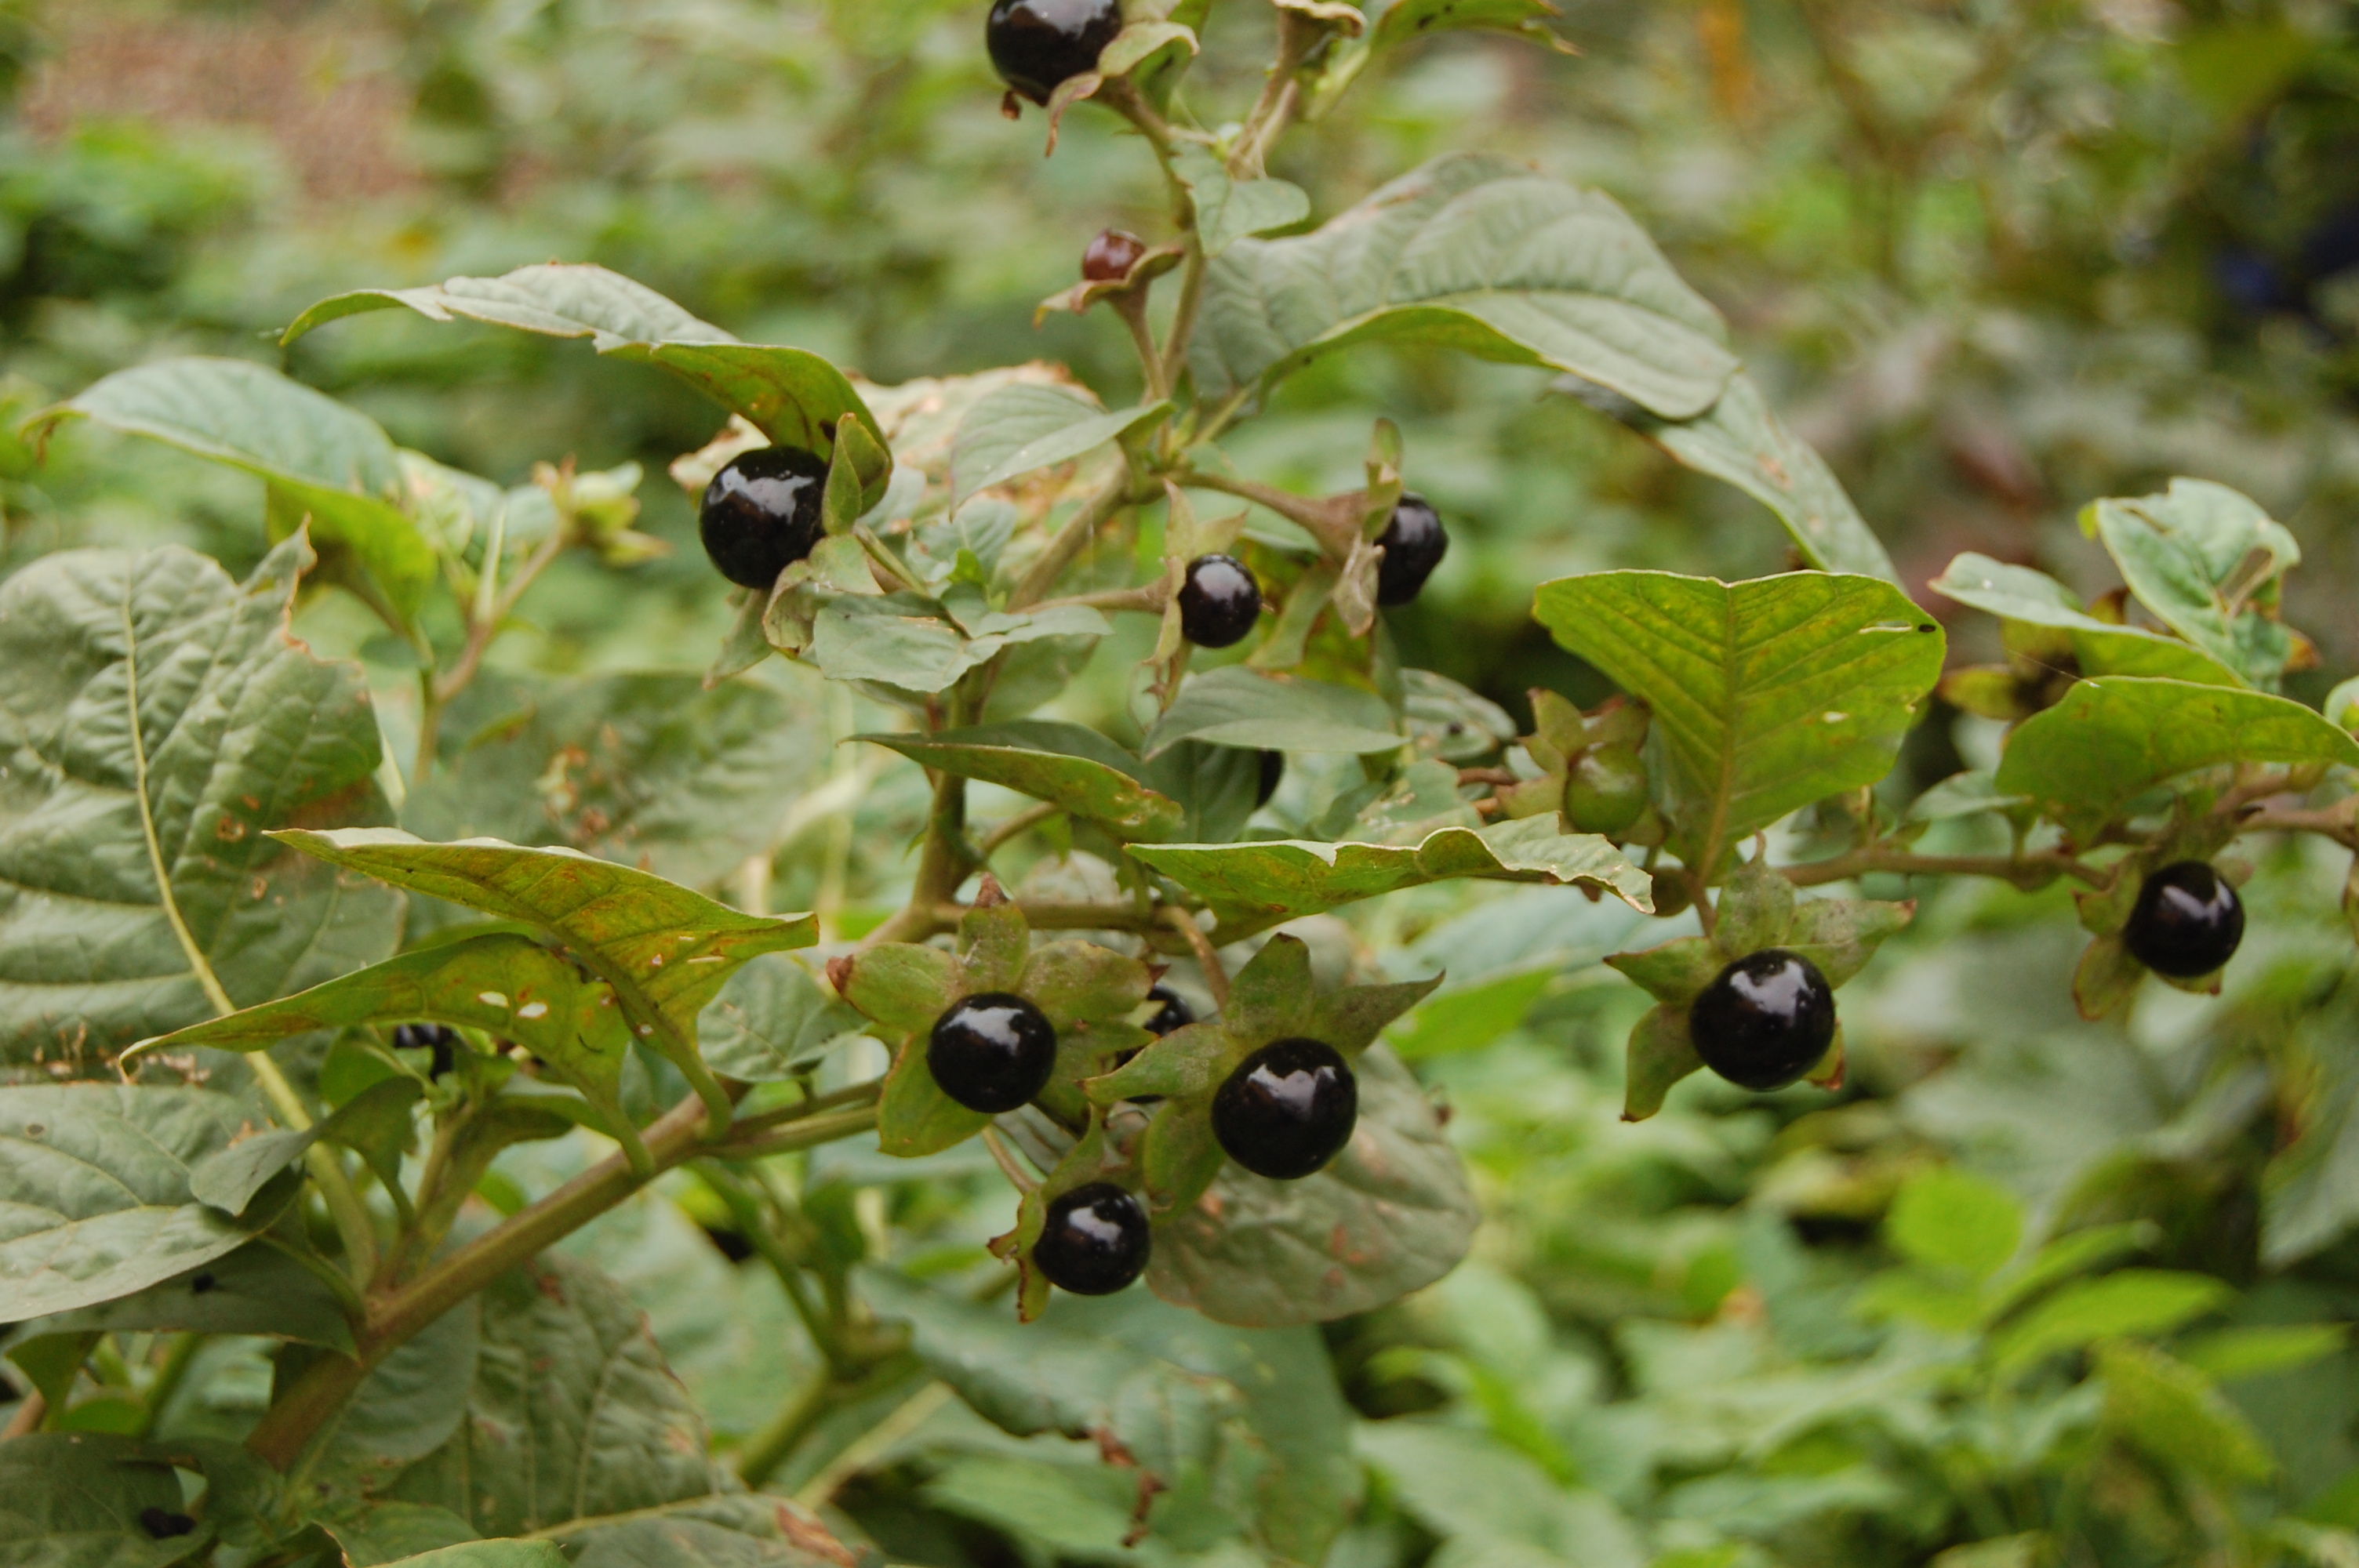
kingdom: Plantae
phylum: Tracheophyta
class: Magnoliopsida
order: Solanales
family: Solanaceae
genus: Atropa
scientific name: Atropa belladonna
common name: Deadly nightshade
